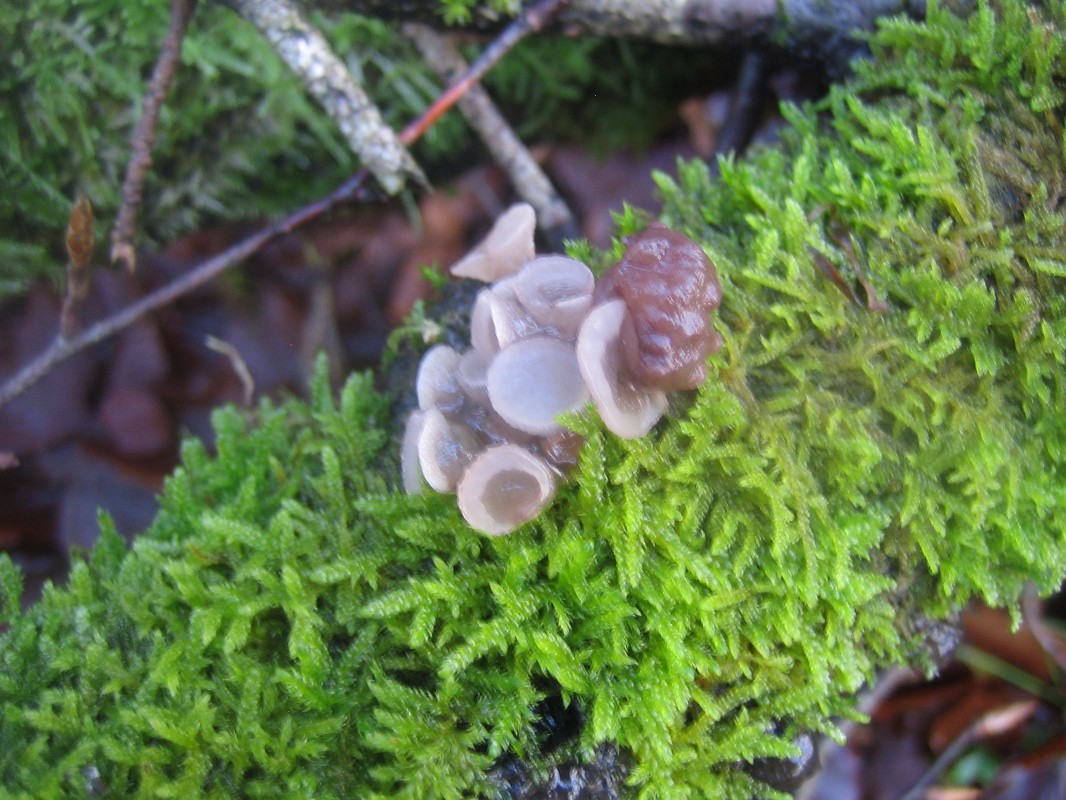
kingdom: Fungi
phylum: Ascomycota
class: Leotiomycetes
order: Helotiales
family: Gelatinodiscaceae
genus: Neobulgaria
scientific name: Neobulgaria pura
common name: bleg bævreskive
